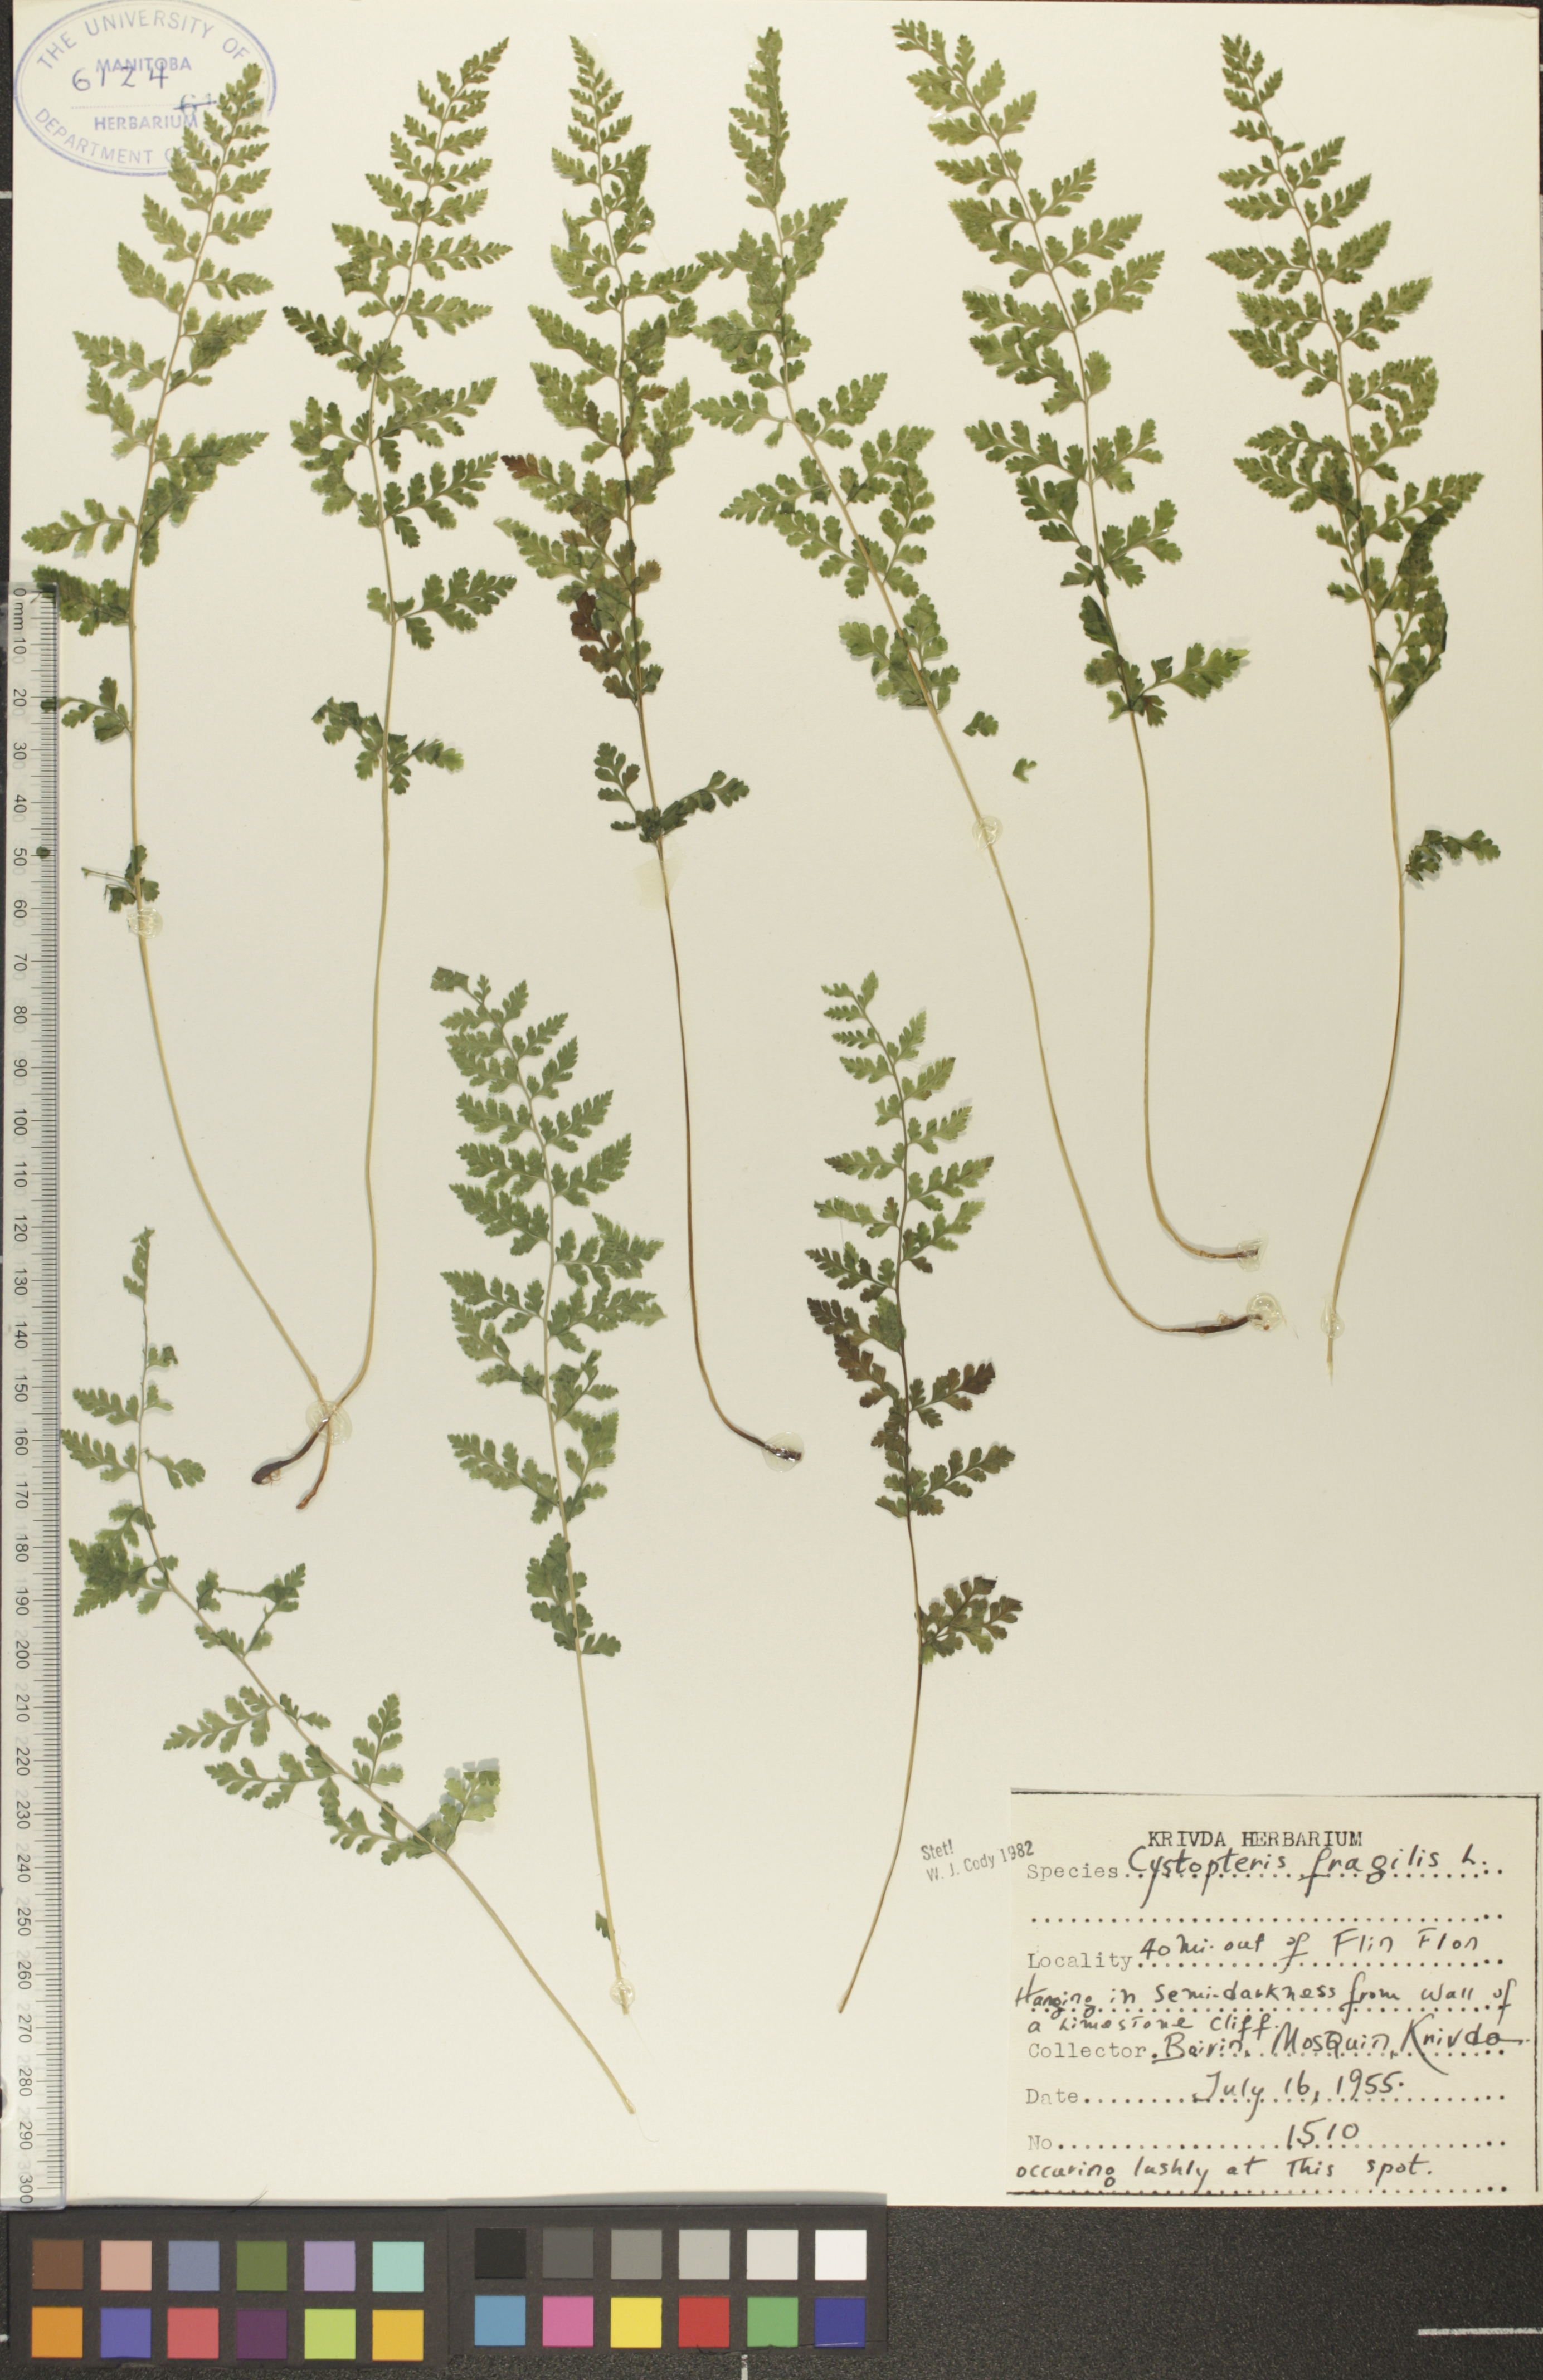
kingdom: Plantae
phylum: Tracheophyta
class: Polypodiopsida
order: Polypodiales
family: Cystopteridaceae
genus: Cystopteris
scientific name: Cystopteris fragilis
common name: Brittle bladder fern
